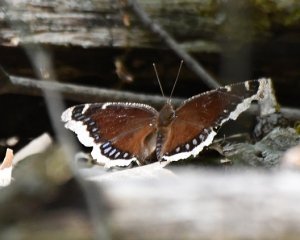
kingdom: Animalia
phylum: Arthropoda
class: Insecta
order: Lepidoptera
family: Nymphalidae
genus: Nymphalis
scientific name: Nymphalis antiopa
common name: Mourning Cloak
